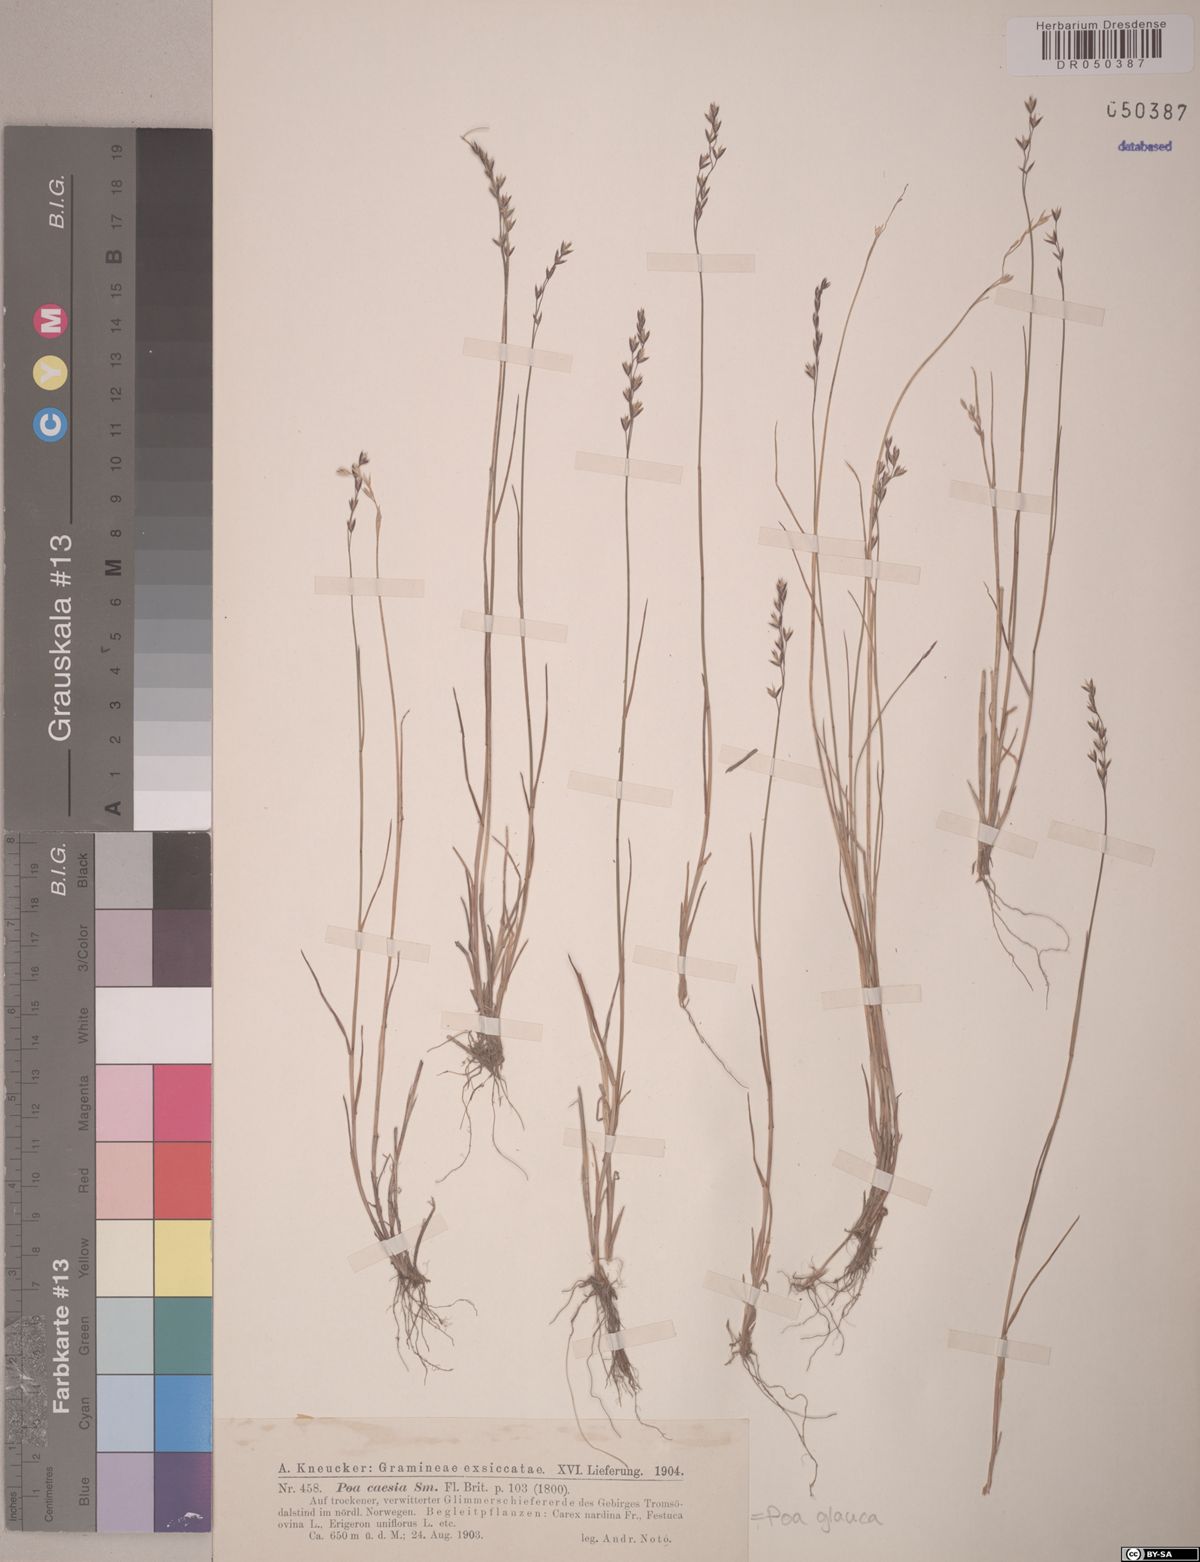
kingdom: Plantae
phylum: Tracheophyta
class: Liliopsida
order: Poales
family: Poaceae
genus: Poa
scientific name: Poa glauca
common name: Glaucous bluegrass
